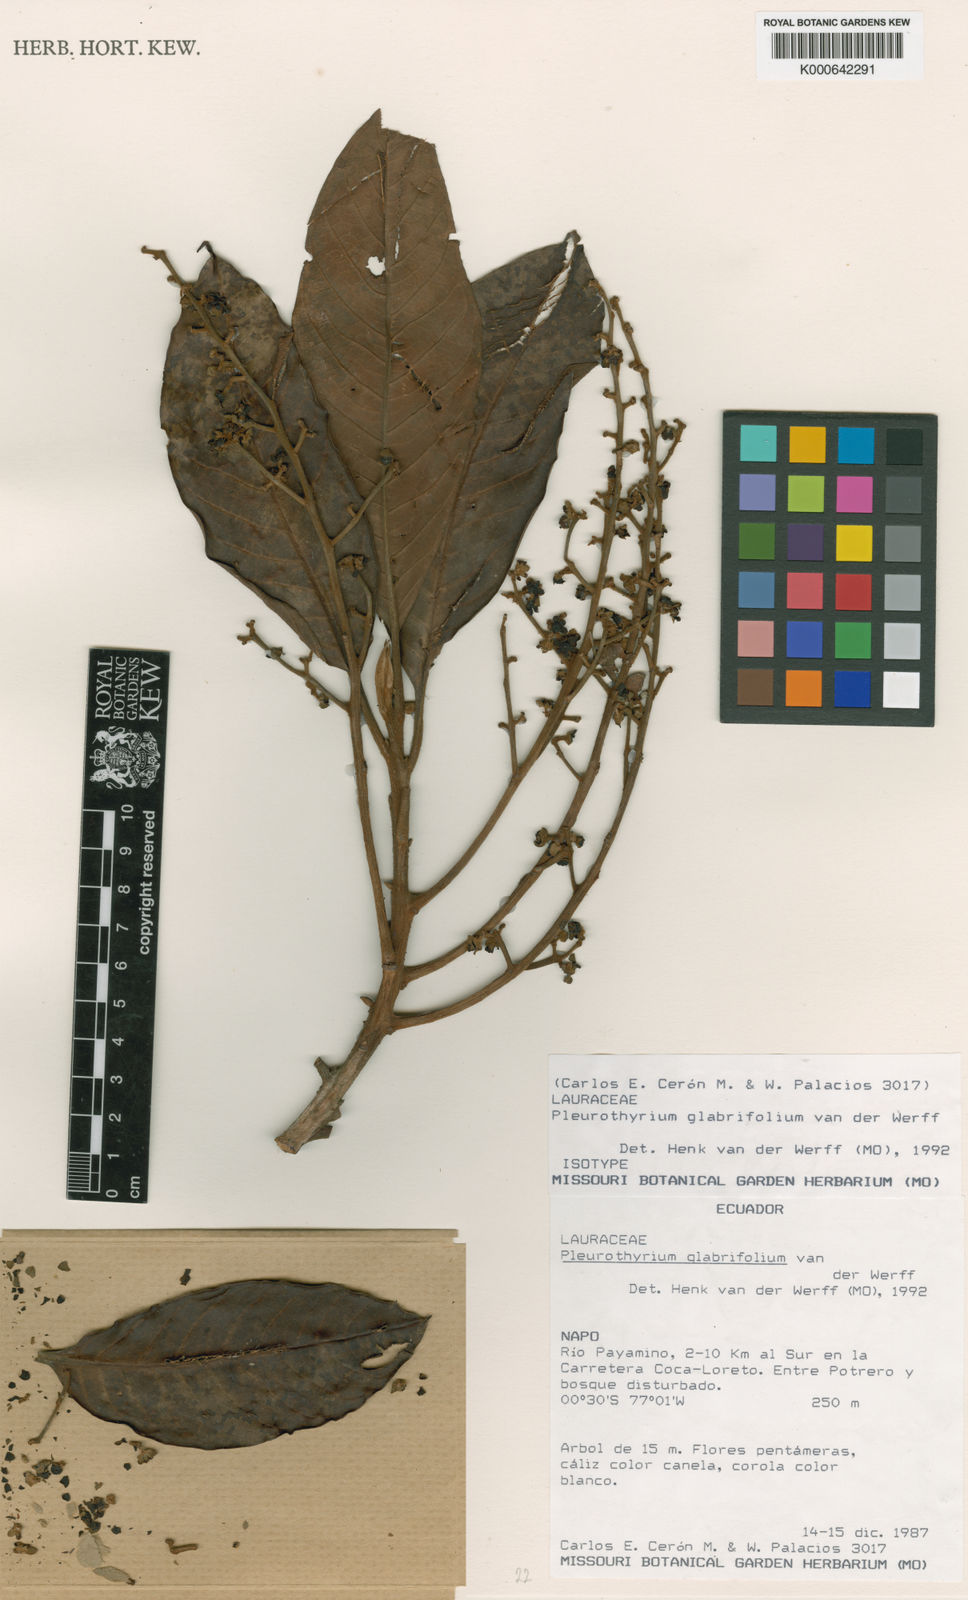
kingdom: Plantae
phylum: Tracheophyta
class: Magnoliopsida
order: Laurales
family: Lauraceae
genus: Pleurothyrium
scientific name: Pleurothyrium glabrifolium
